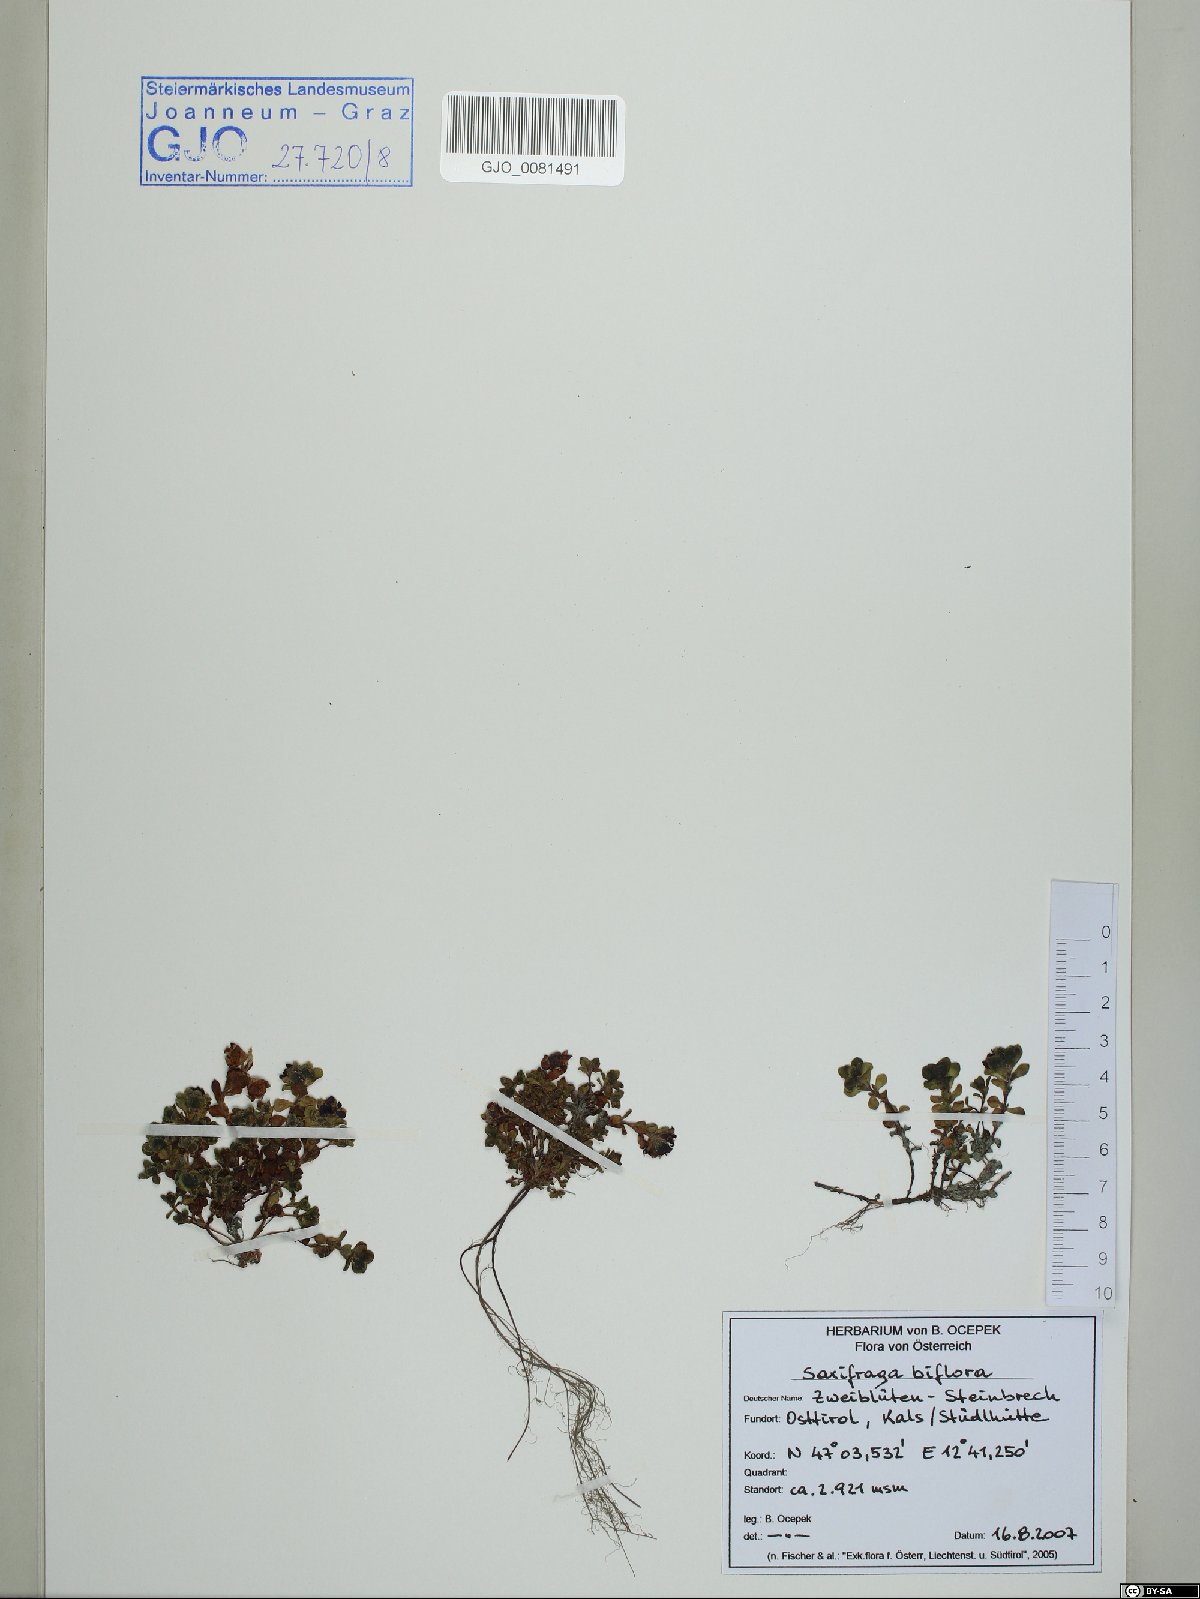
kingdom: Plantae
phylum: Tracheophyta
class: Magnoliopsida
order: Saxifragales
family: Saxifragaceae
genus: Saxifraga
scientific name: Saxifraga biflora
